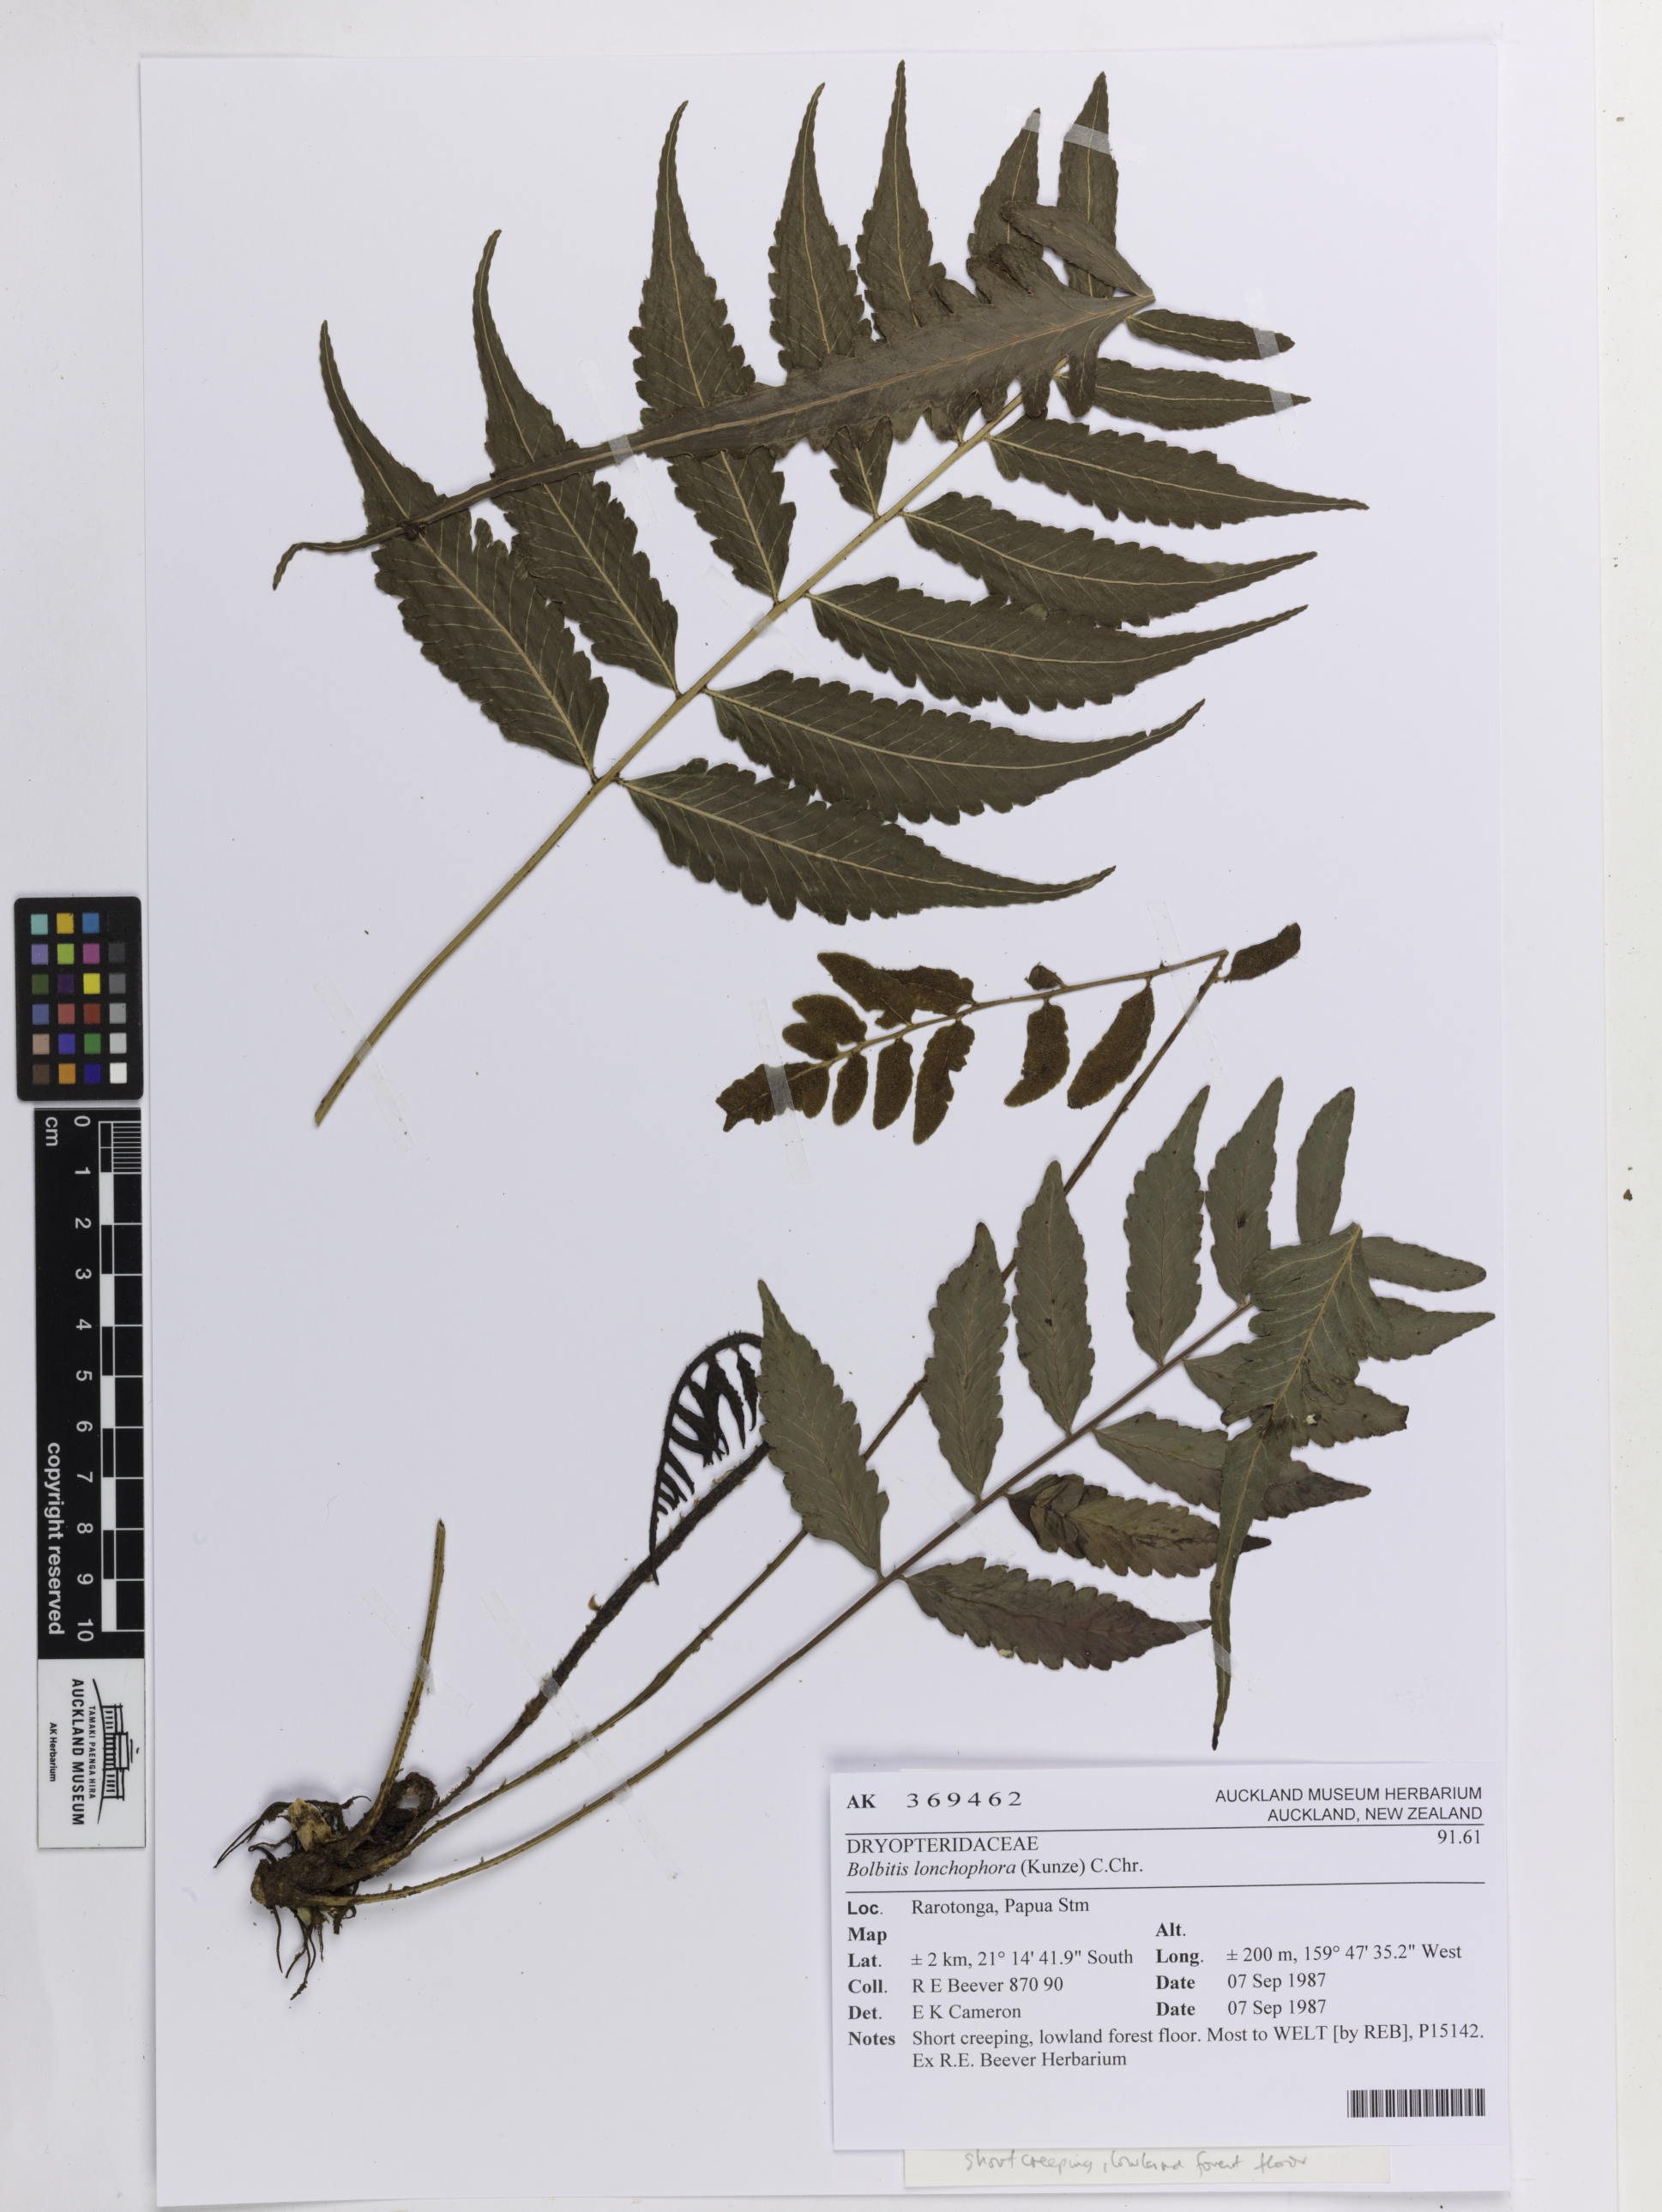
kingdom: Plantae
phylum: Tracheophyta
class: Polypodiopsida
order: Polypodiales
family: Dryopteridaceae
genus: Bolbitis
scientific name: Bolbitis lonchophora
